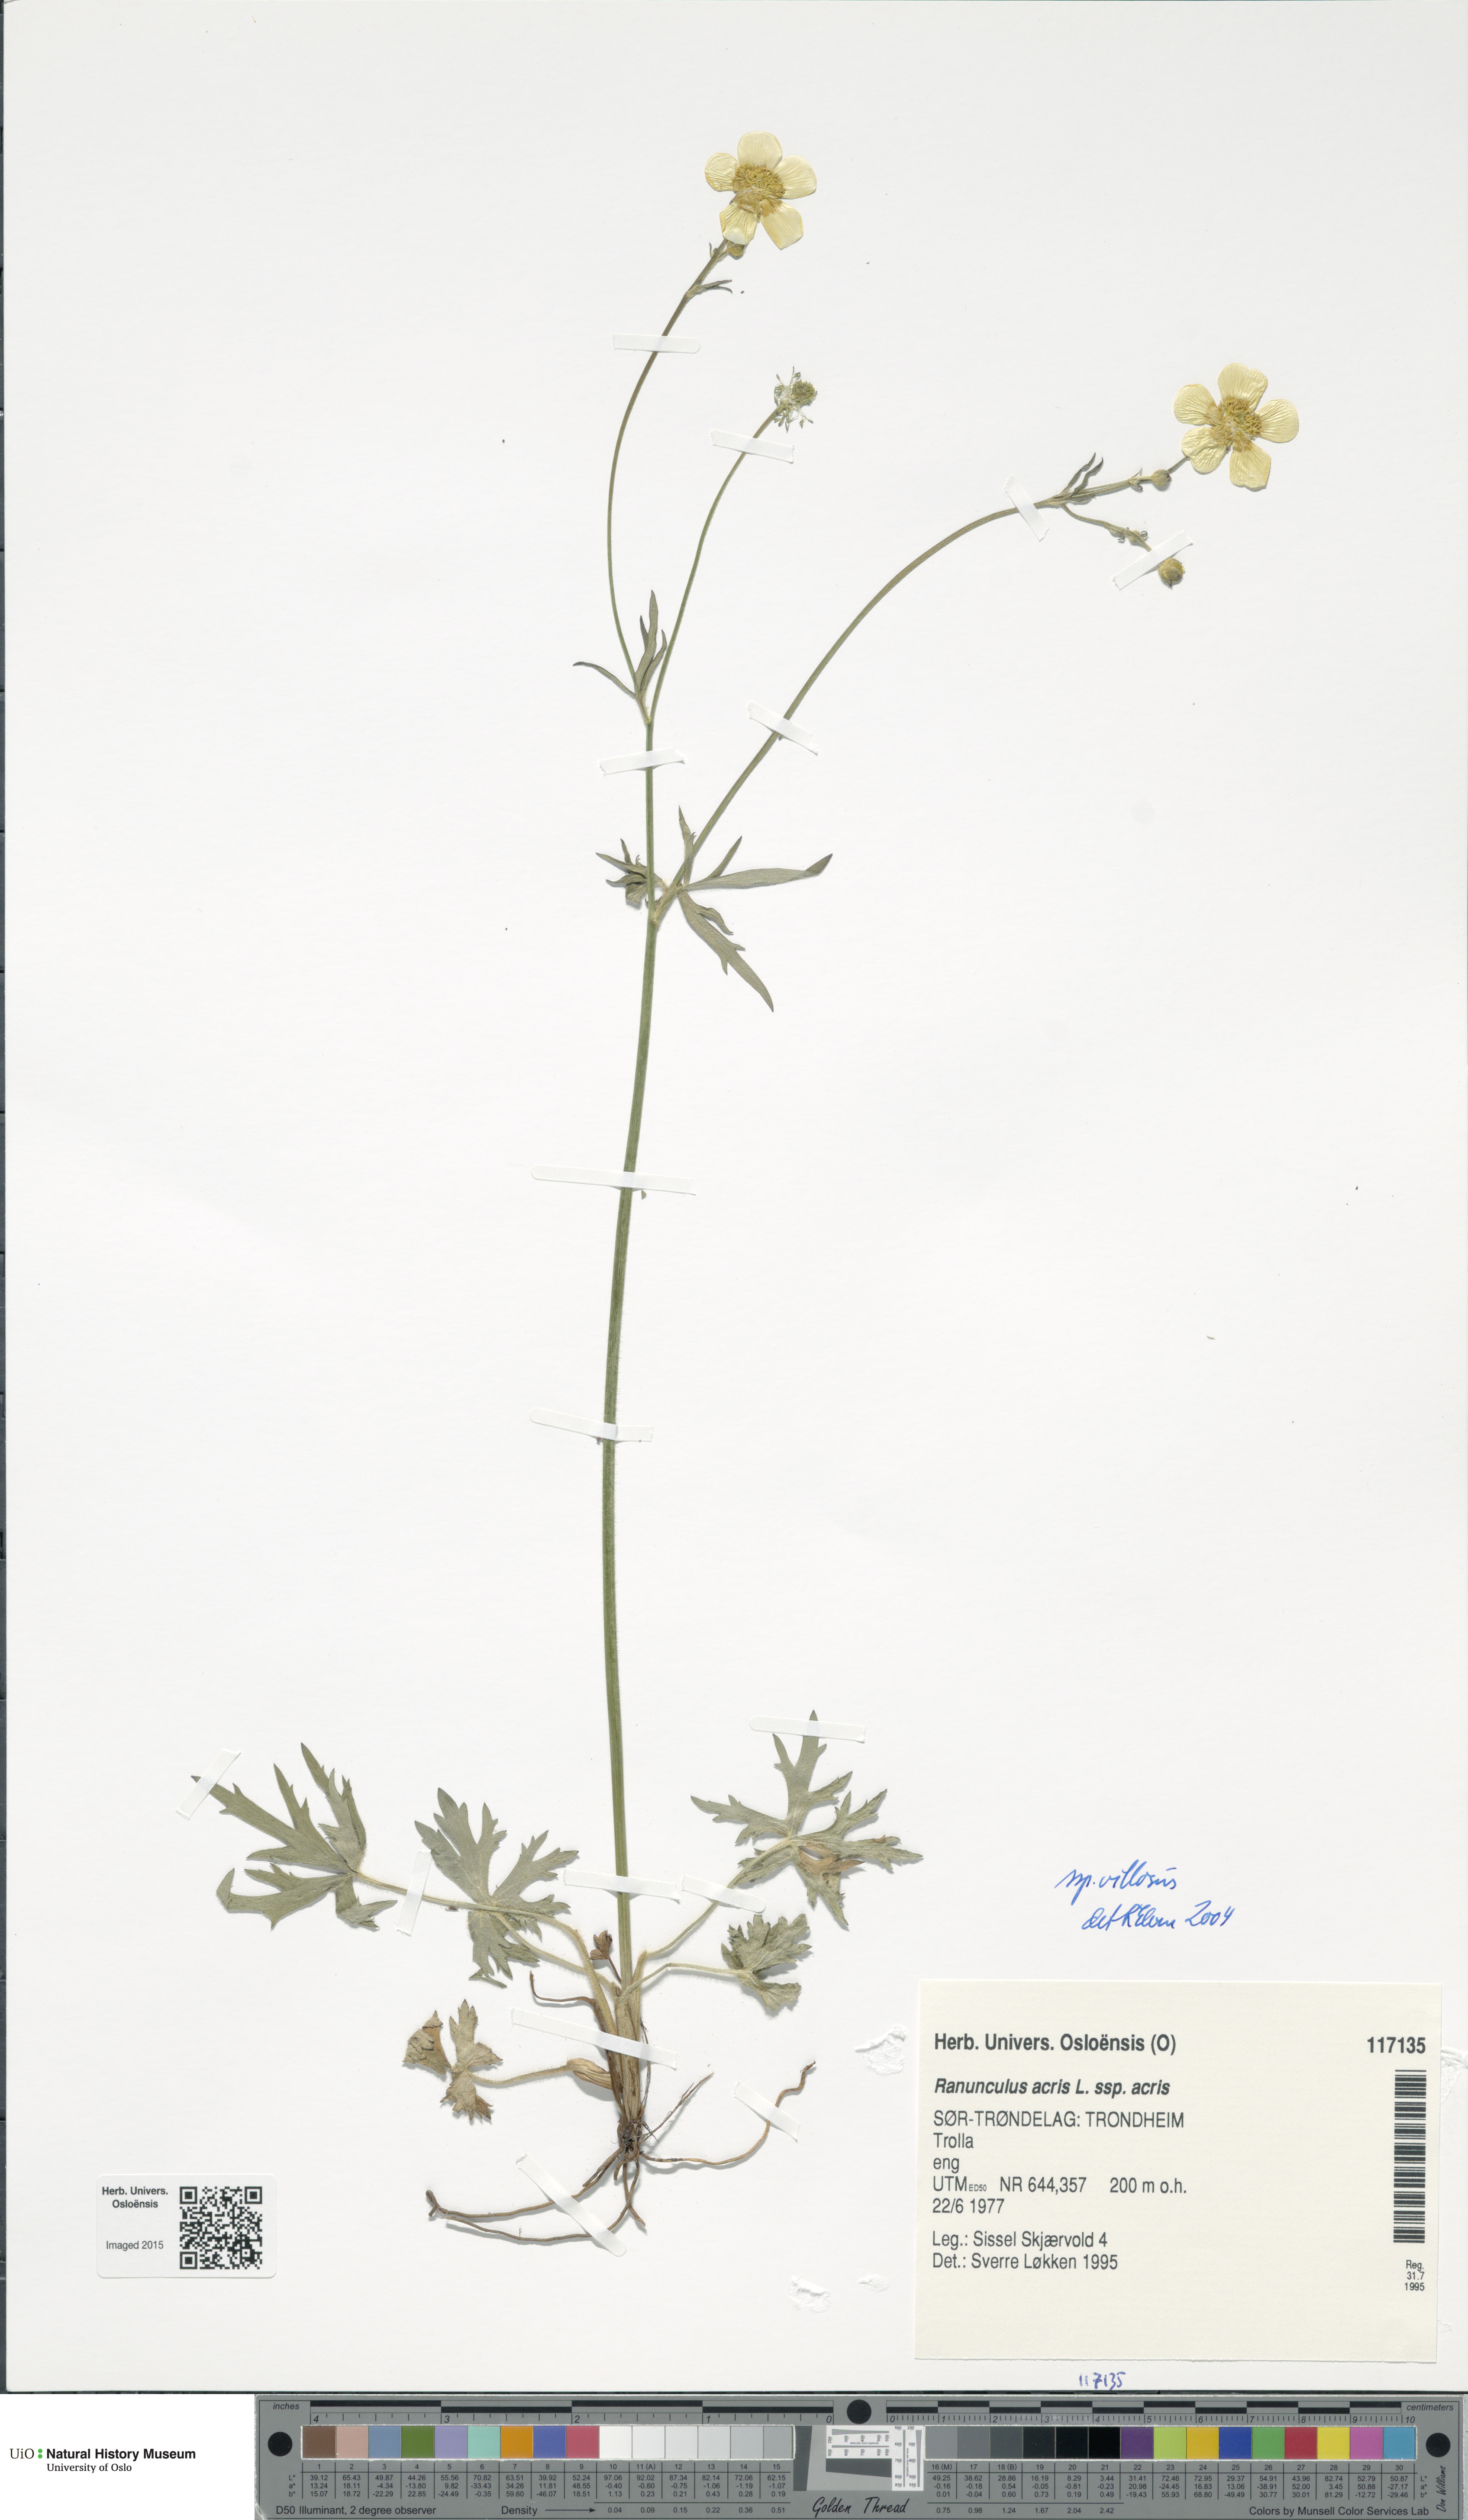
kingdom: Plantae
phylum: Tracheophyta
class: Magnoliopsida
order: Ranunculales
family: Ranunculaceae
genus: Ranunculus
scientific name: Ranunculus acris
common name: Meadow buttercup
